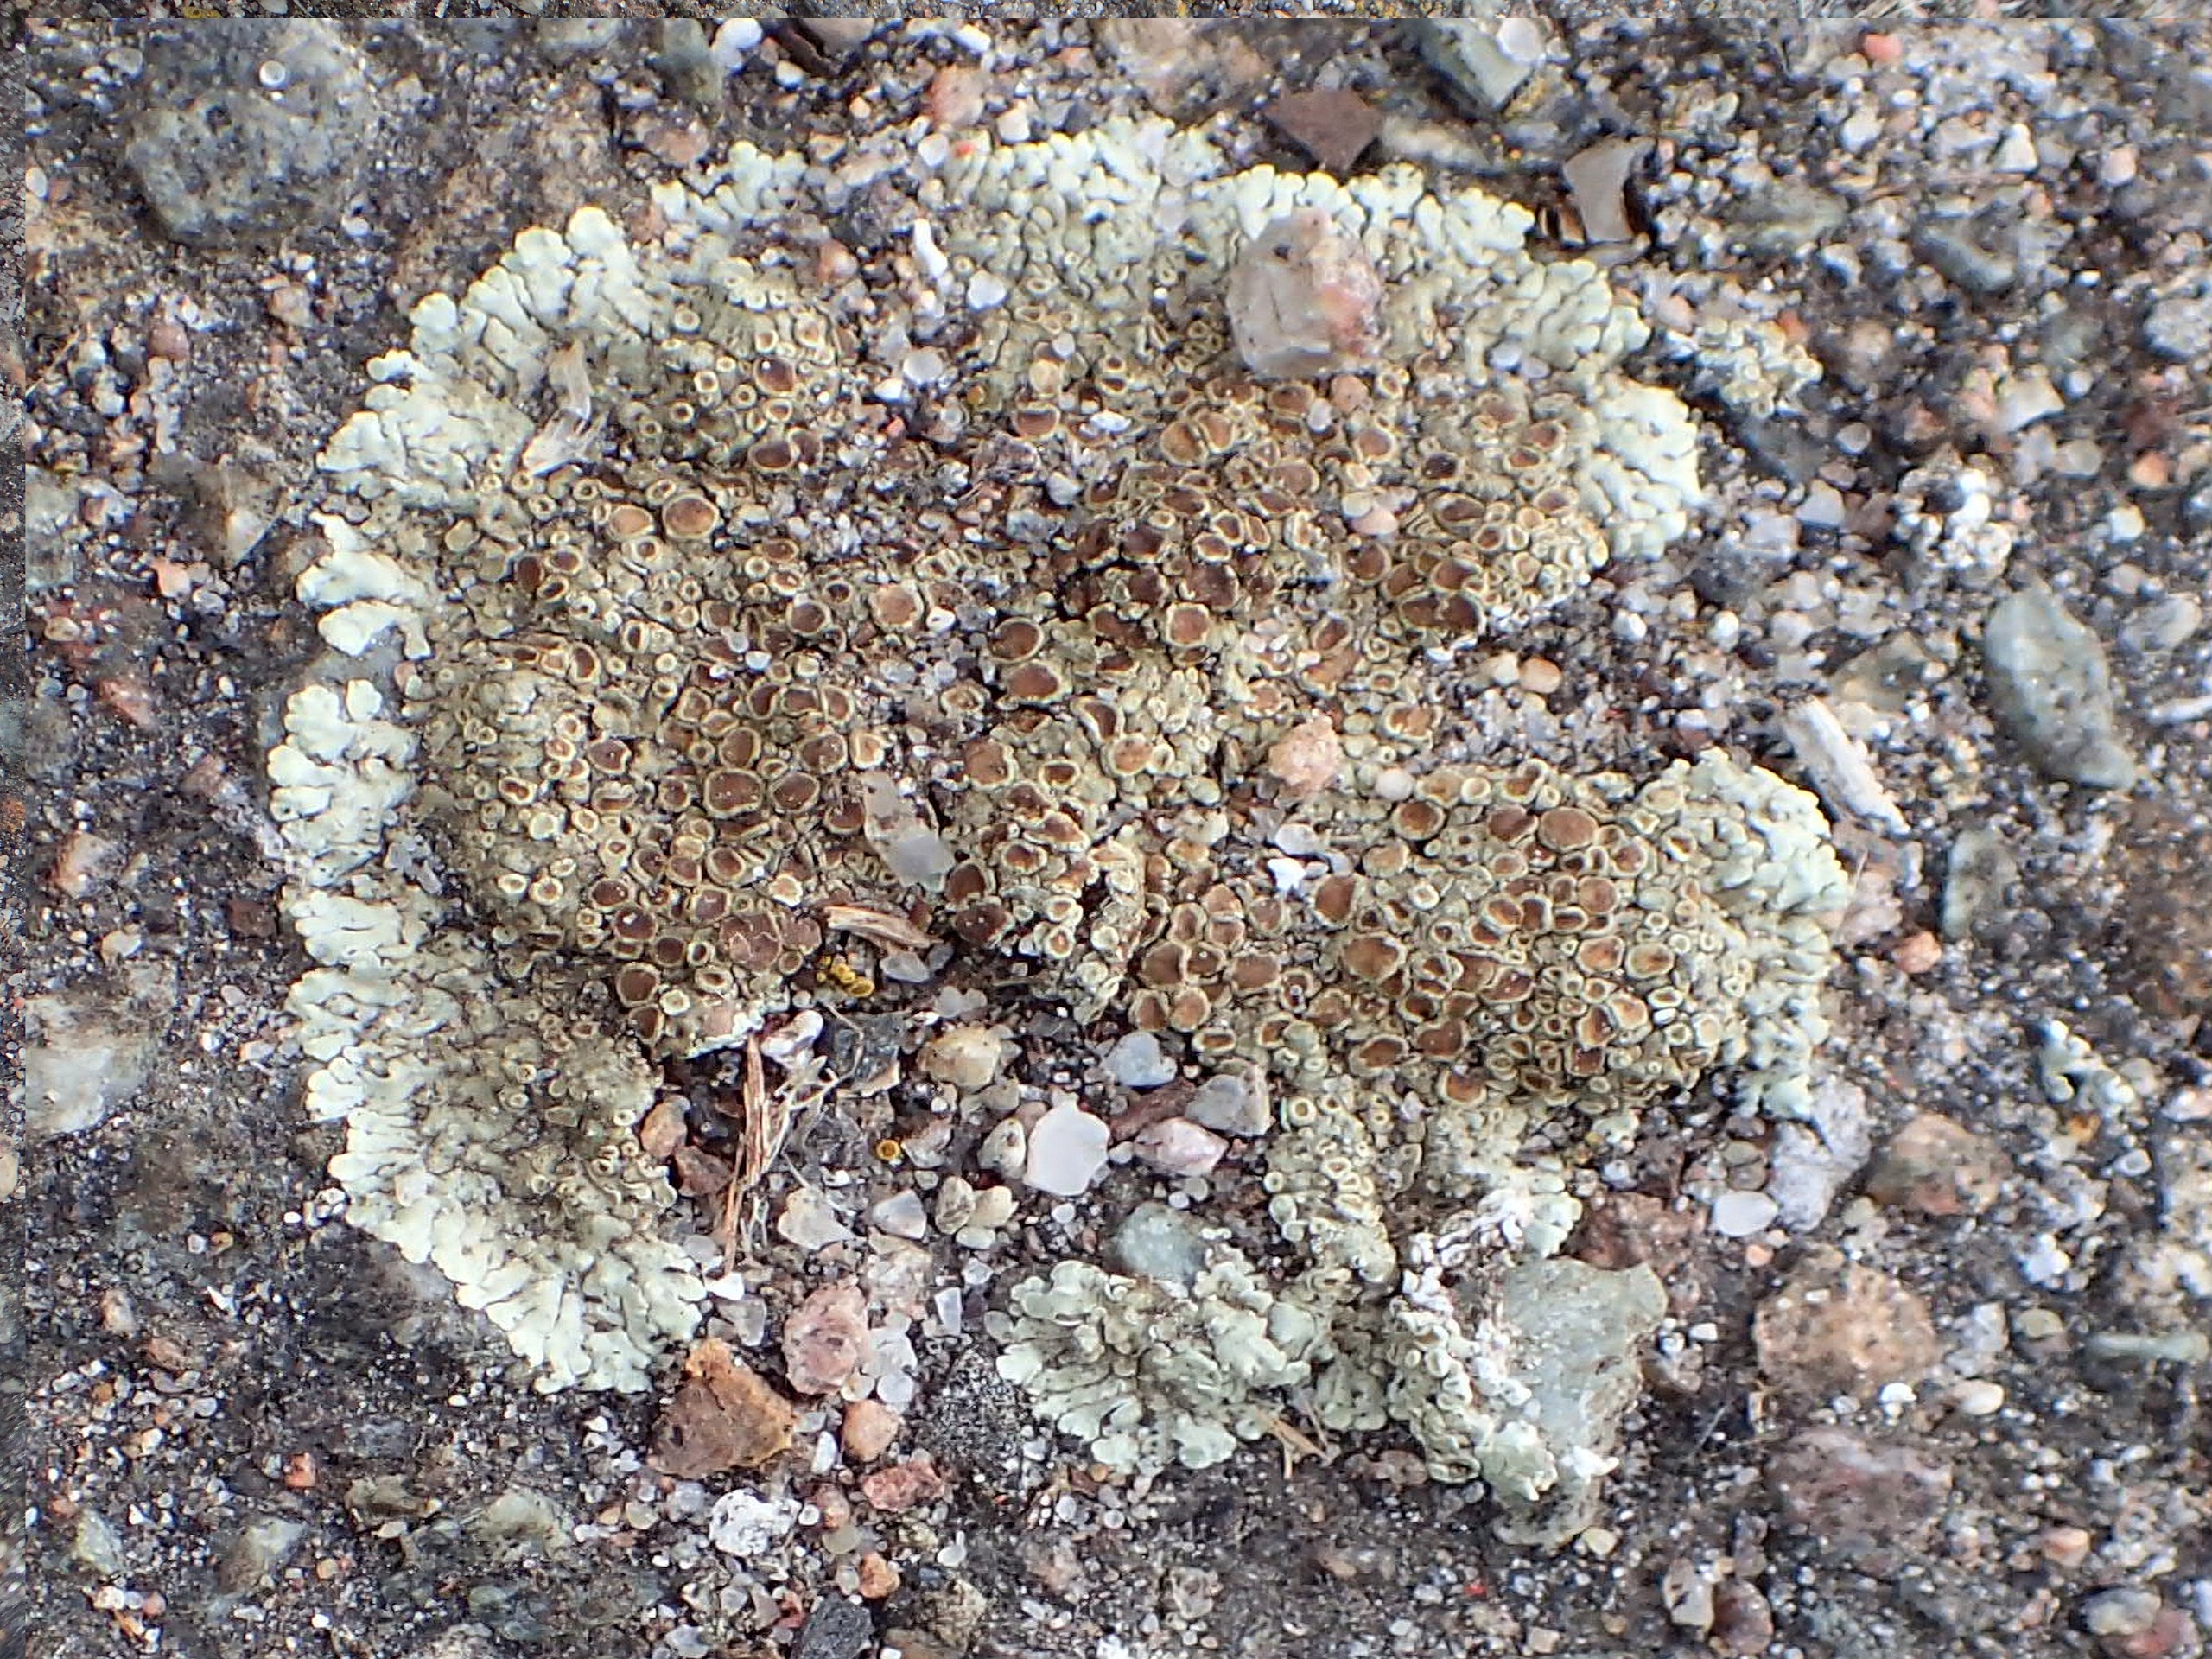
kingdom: Fungi
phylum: Ascomycota
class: Lecanoromycetes
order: Lecanorales
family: Lecanoraceae
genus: Protoparmeliopsis
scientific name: Protoparmeliopsis muralis
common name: Randfliget kantskivelav
